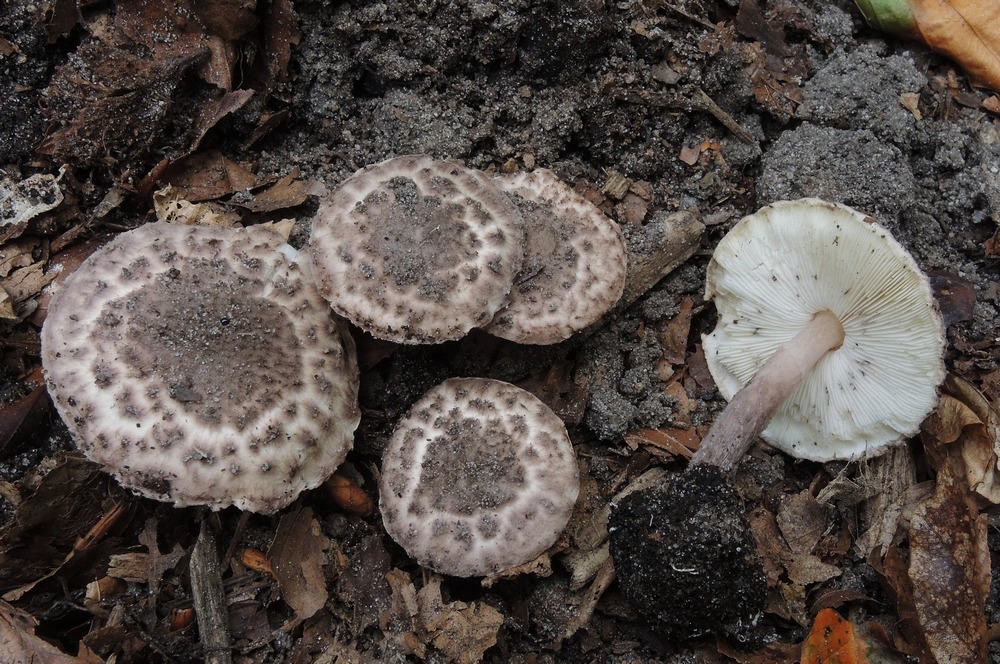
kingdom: Fungi
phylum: Basidiomycota
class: Agaricomycetes
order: Agaricales
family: Agaricaceae
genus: Lepiota
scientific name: Lepiota fuscovinacea
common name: vinrød parasolhat
